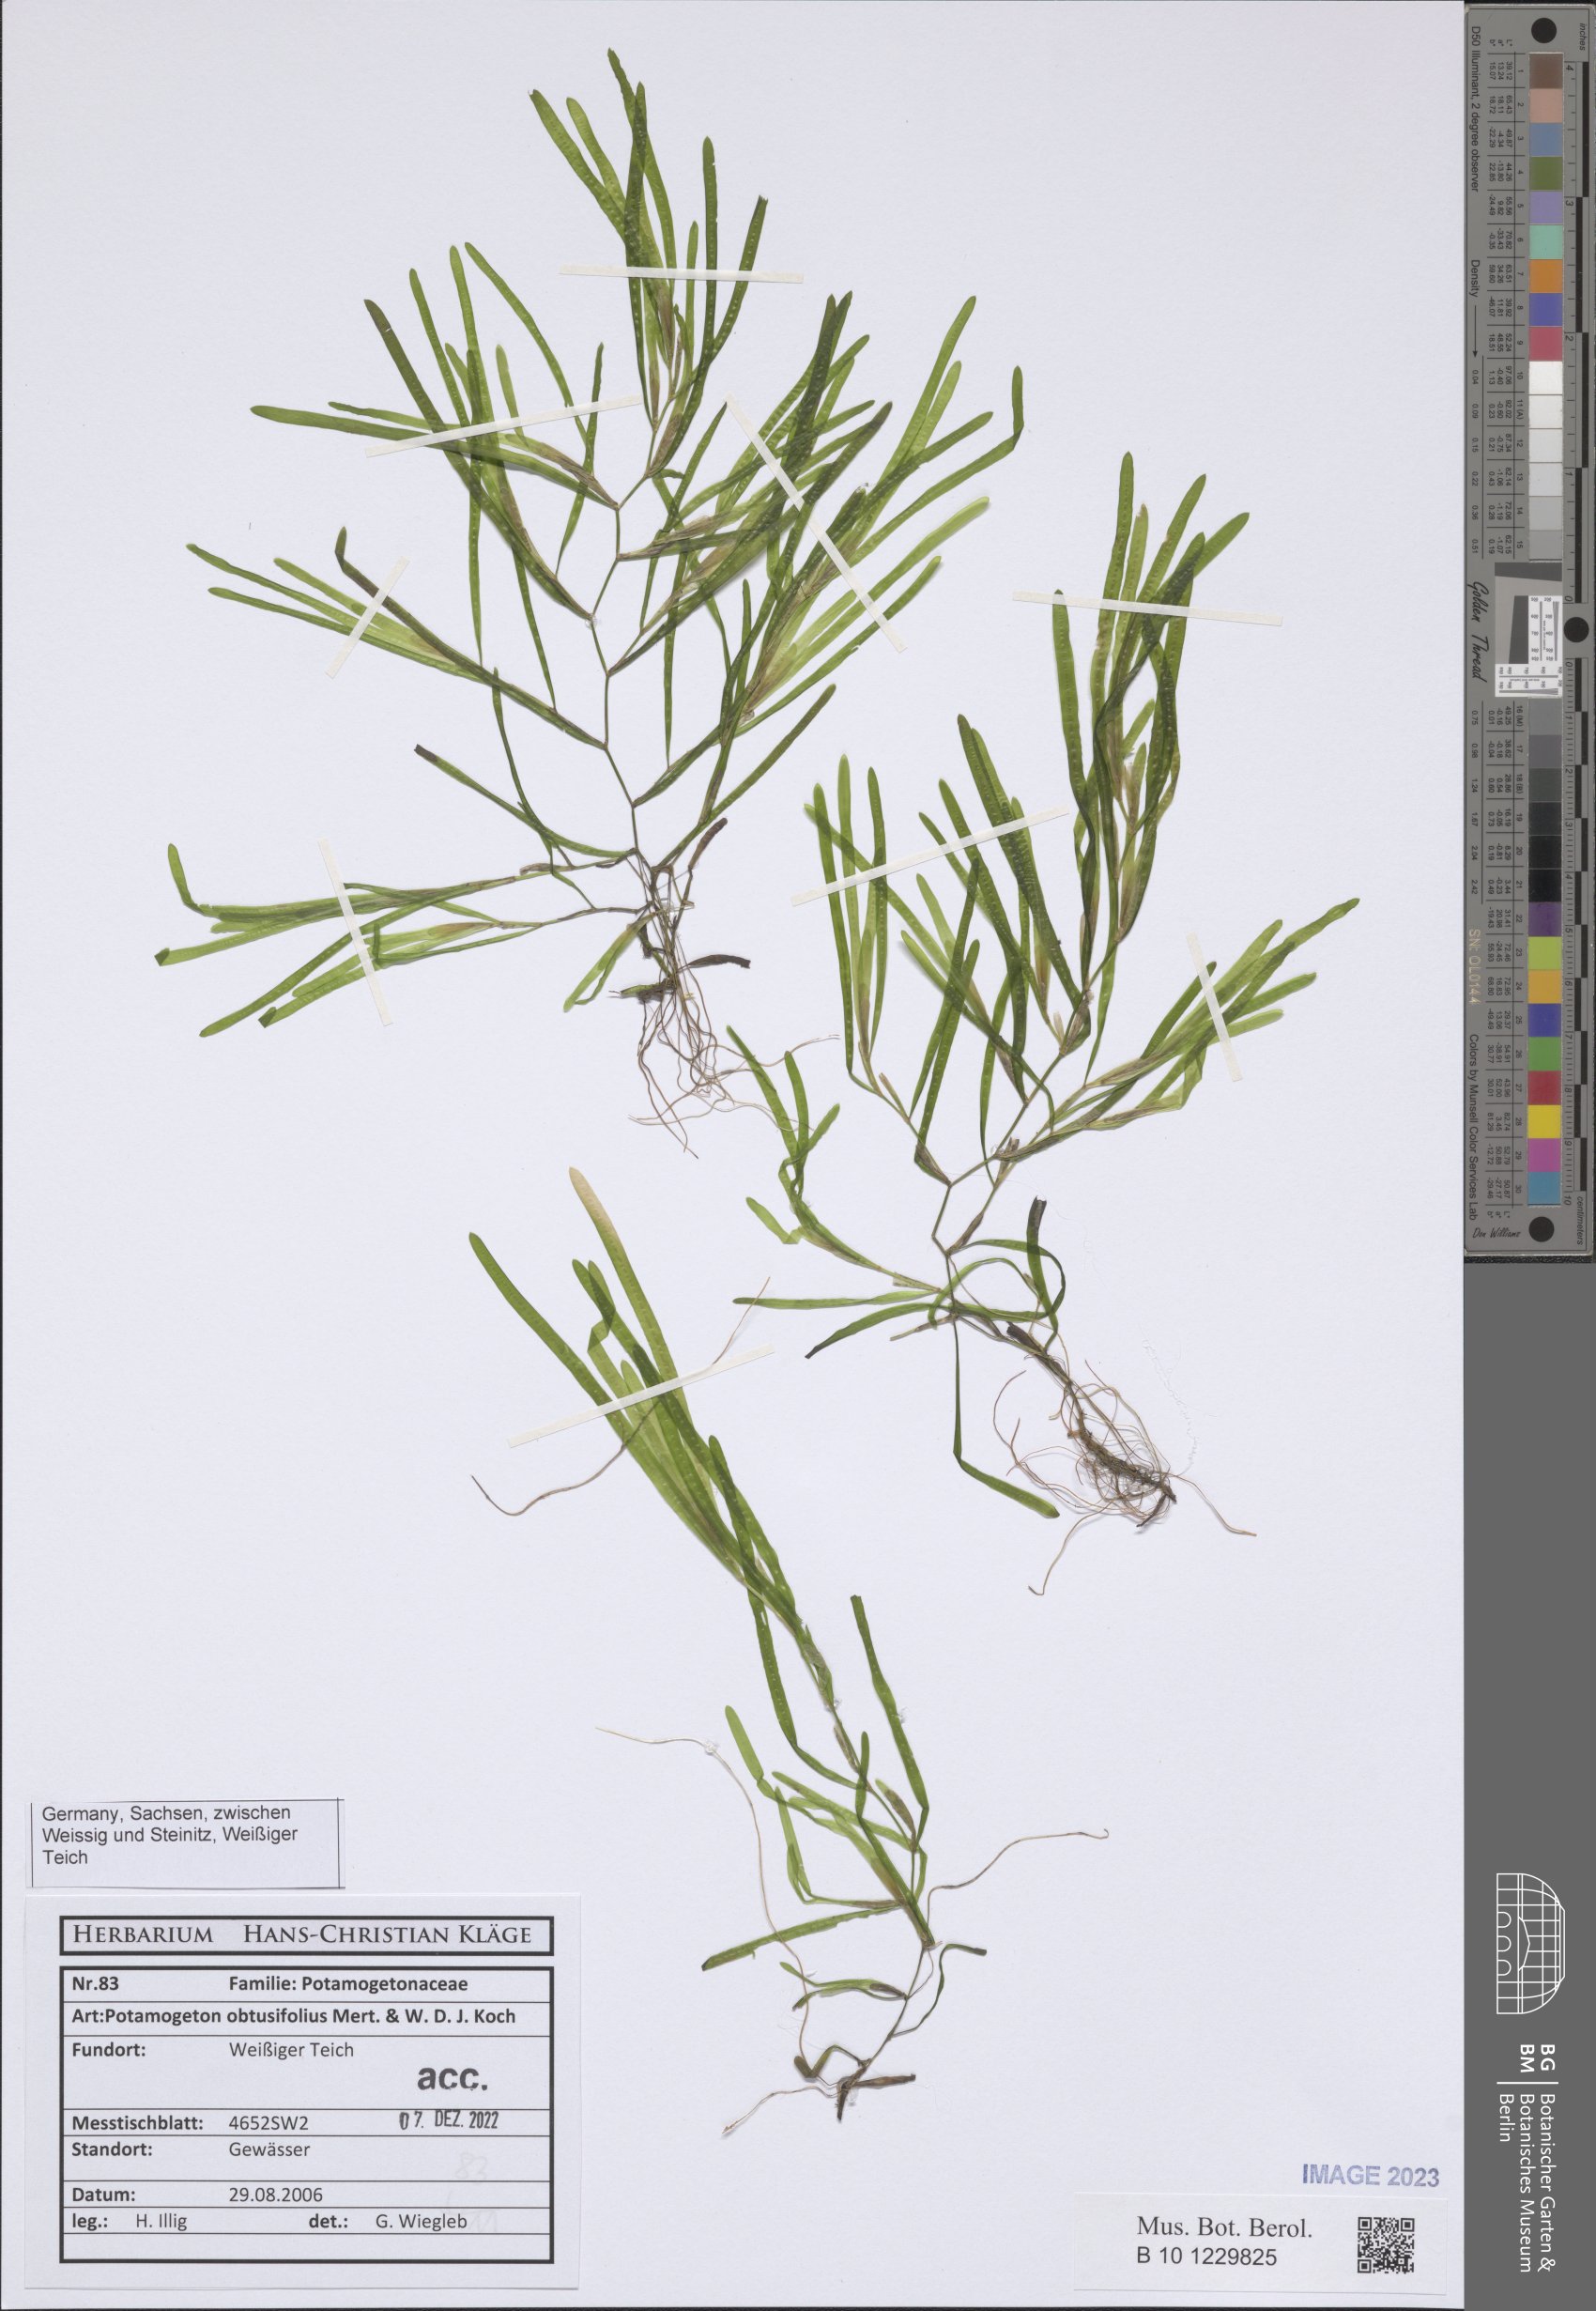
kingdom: Plantae
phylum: Tracheophyta
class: Liliopsida
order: Alismatales
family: Potamogetonaceae
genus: Potamogeton
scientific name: Potamogeton obtusifolius
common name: Blunt-leaved pondweed
